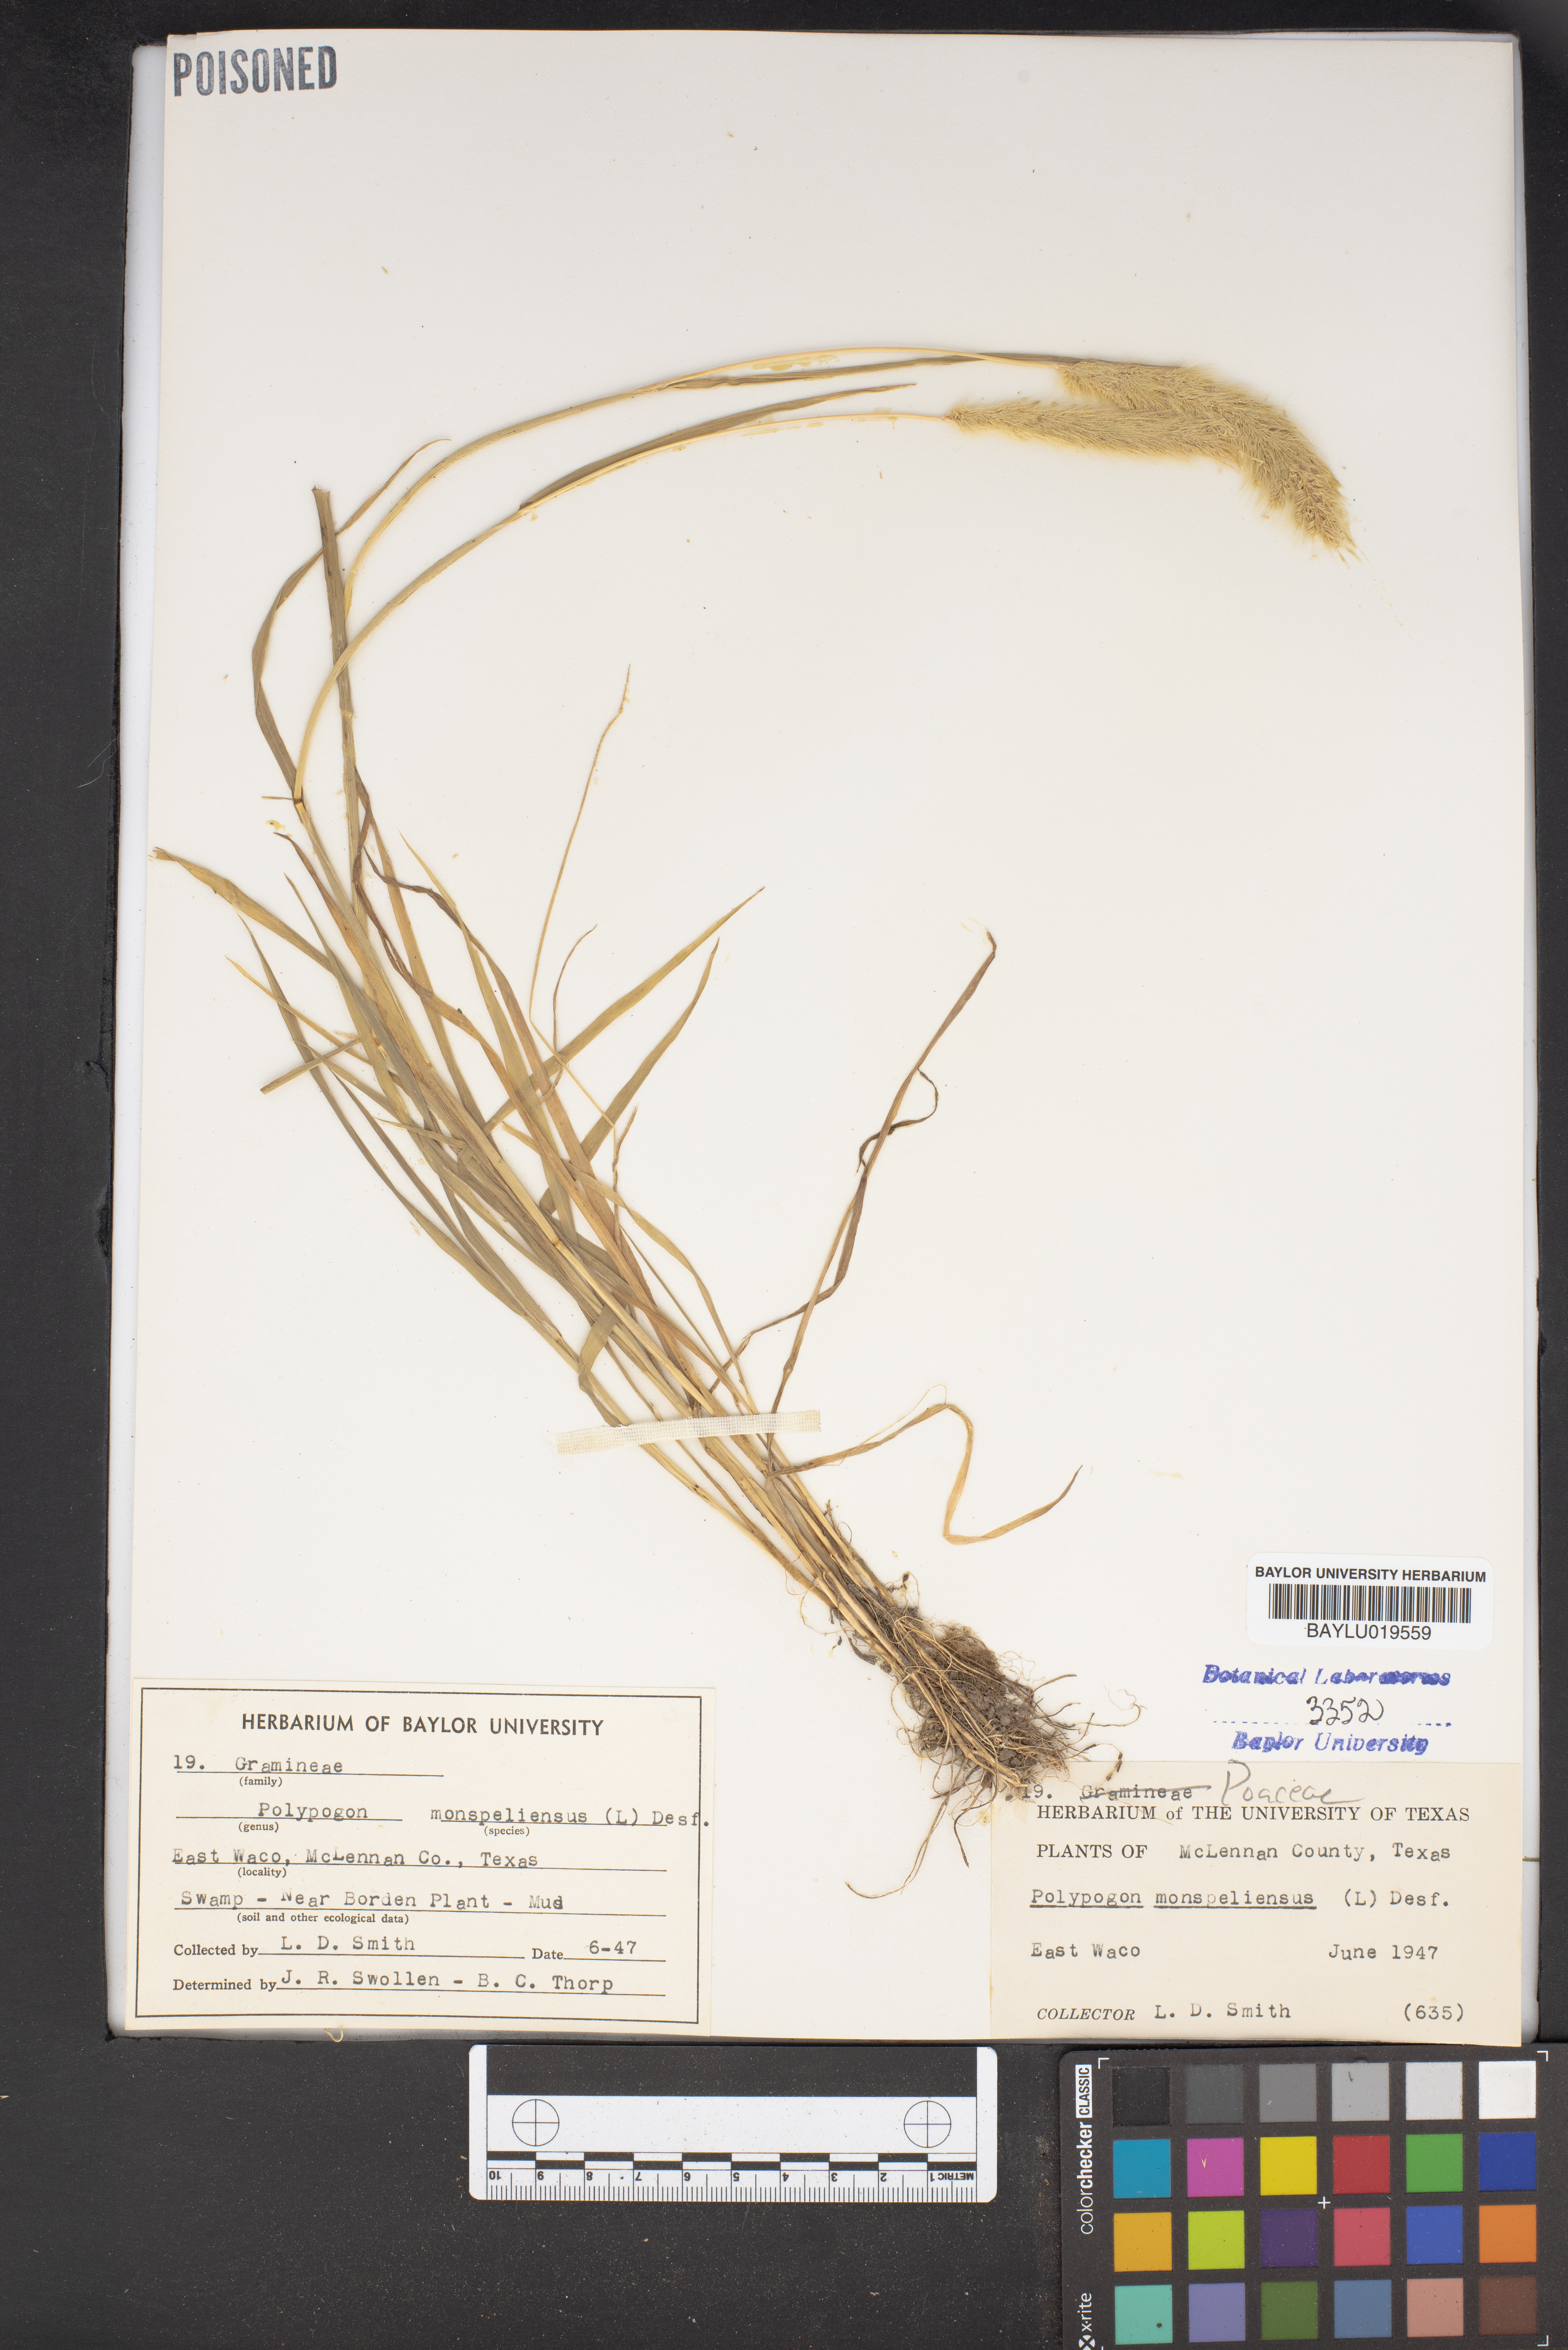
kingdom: Plantae
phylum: Tracheophyta
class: Liliopsida
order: Poales
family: Poaceae
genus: Polypogon
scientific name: Polypogon monspeliensis
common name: Annual rabbitsfoot grass
